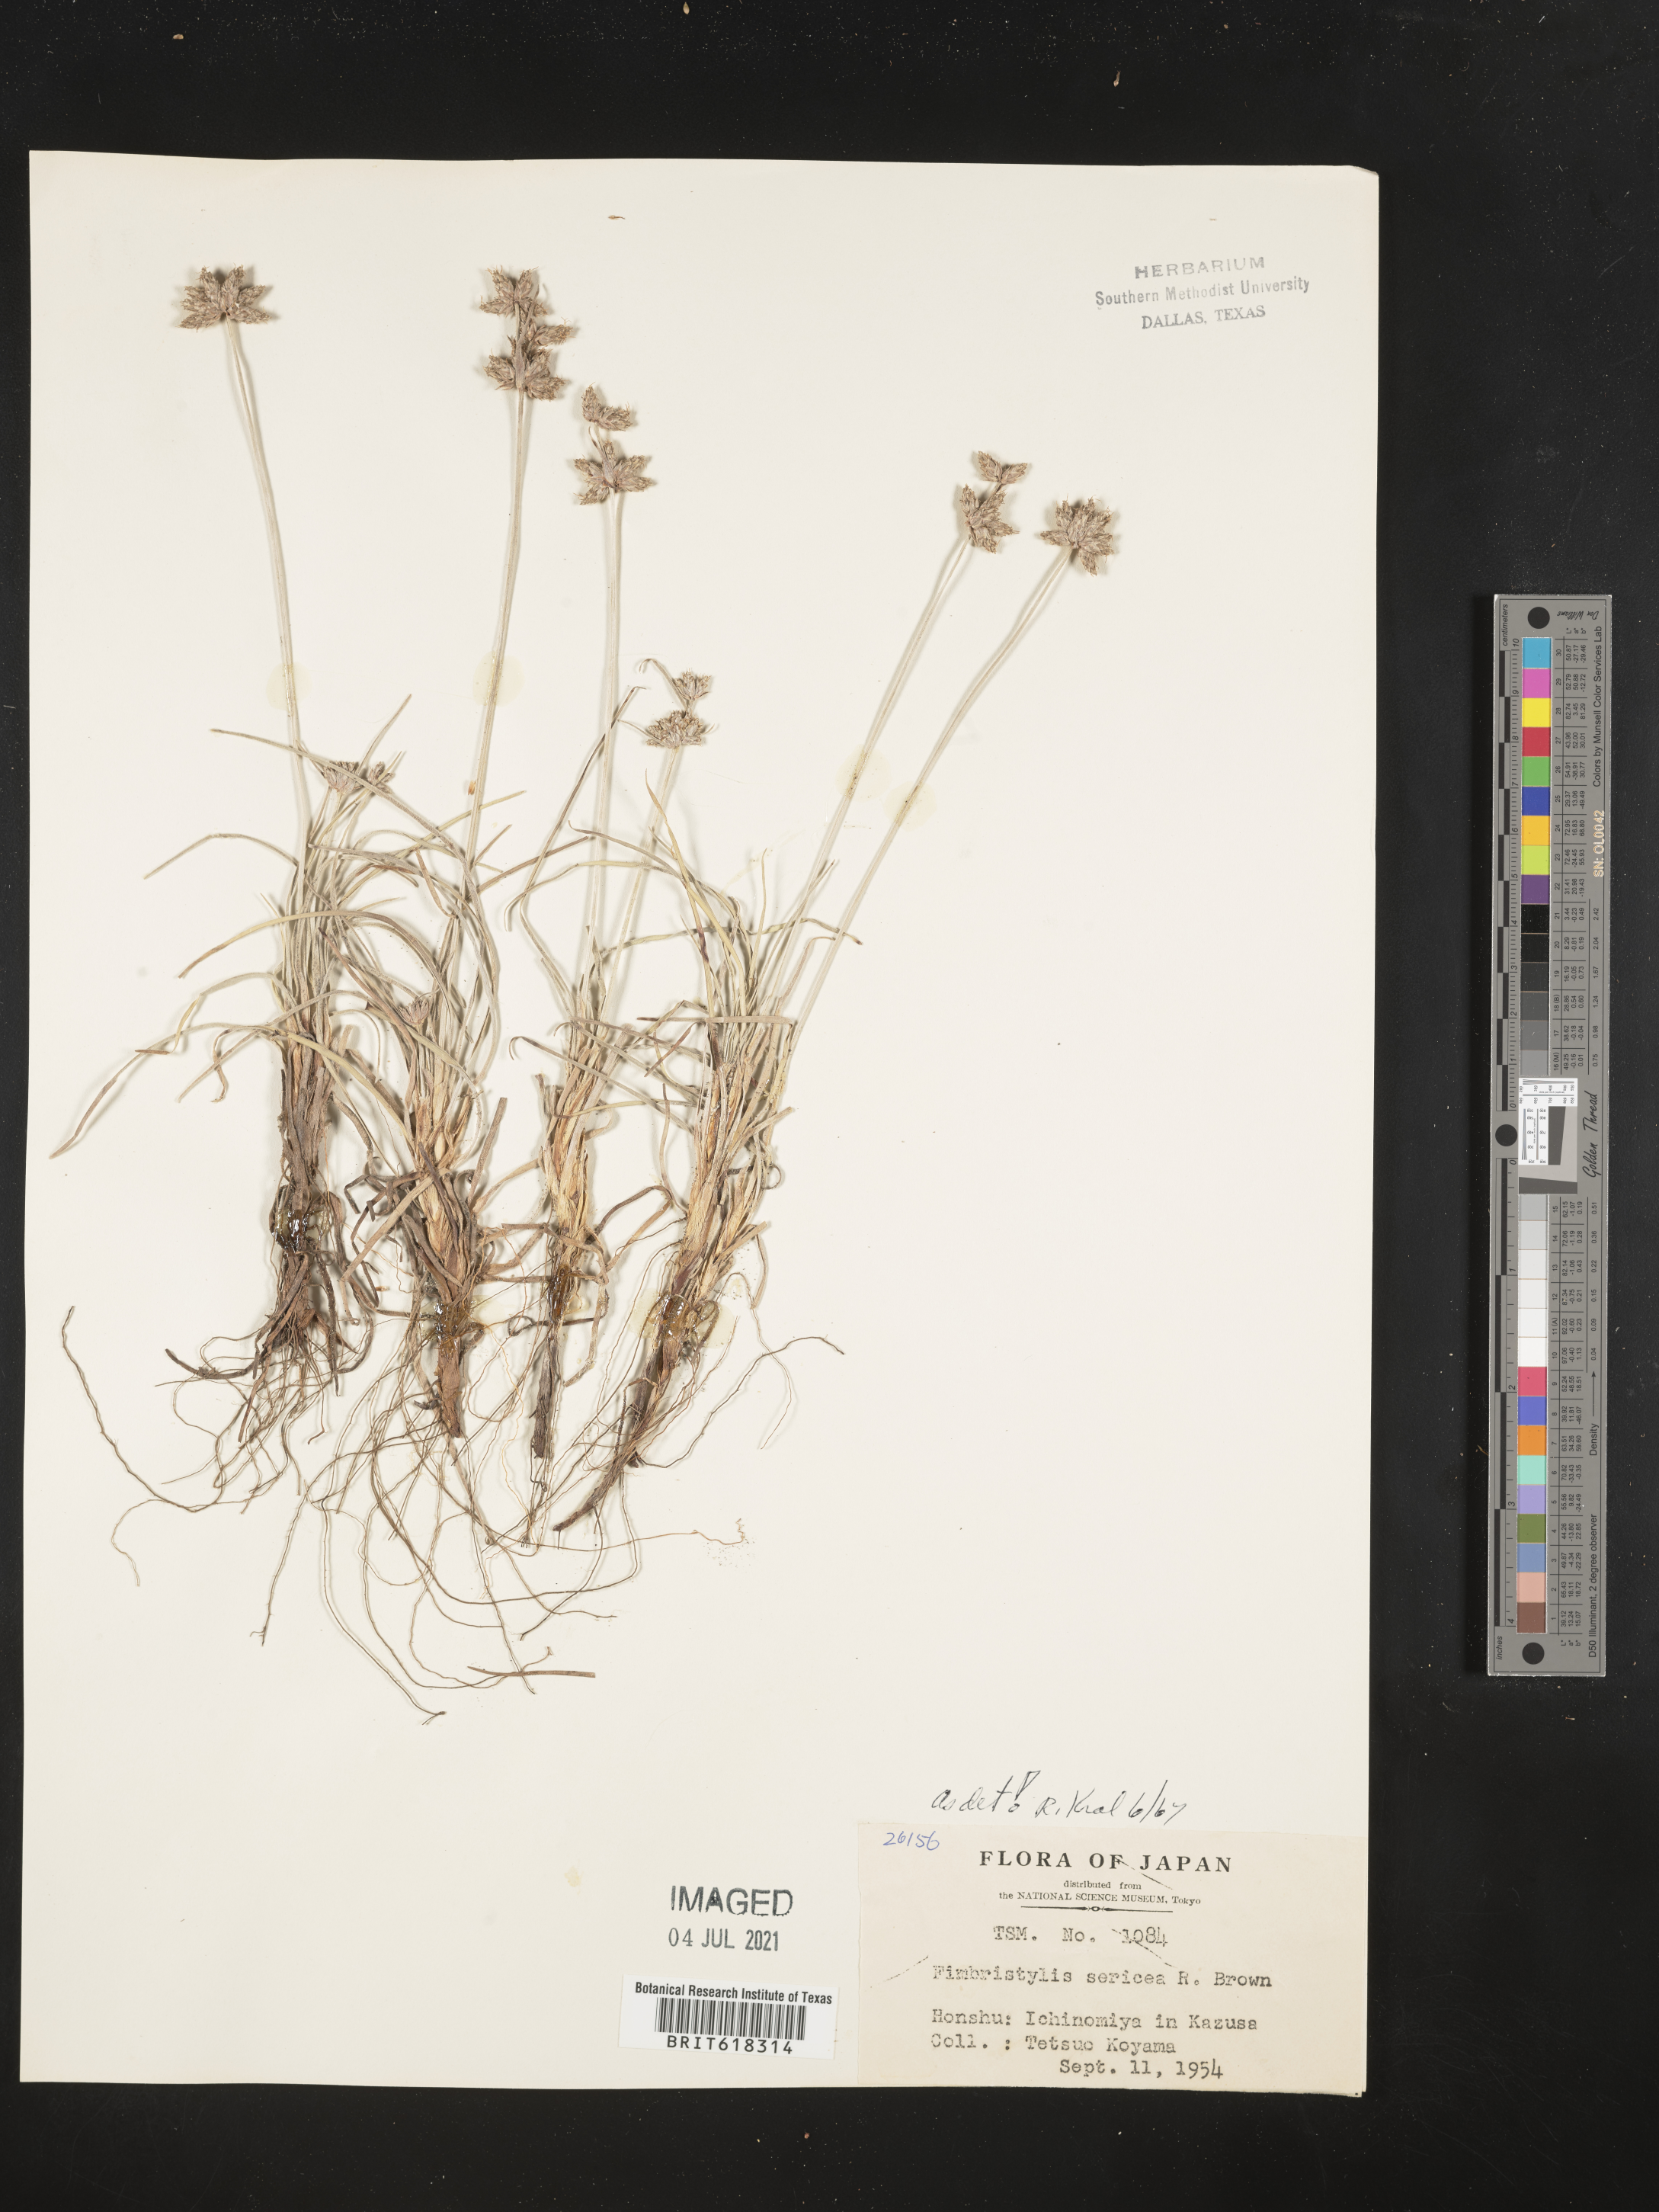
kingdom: Plantae
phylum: Tracheophyta
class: Liliopsida
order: Poales
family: Cyperaceae
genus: Fimbristylis
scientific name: Fimbristylis sericea
